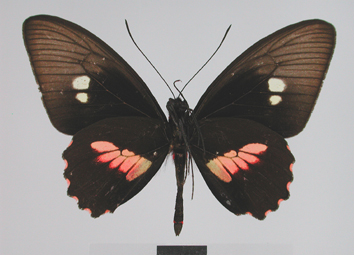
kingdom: Animalia
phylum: Arthropoda
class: Insecta
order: Lepidoptera
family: Papilionidae
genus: Parides
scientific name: Parides eurimedes
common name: True cattleheart
